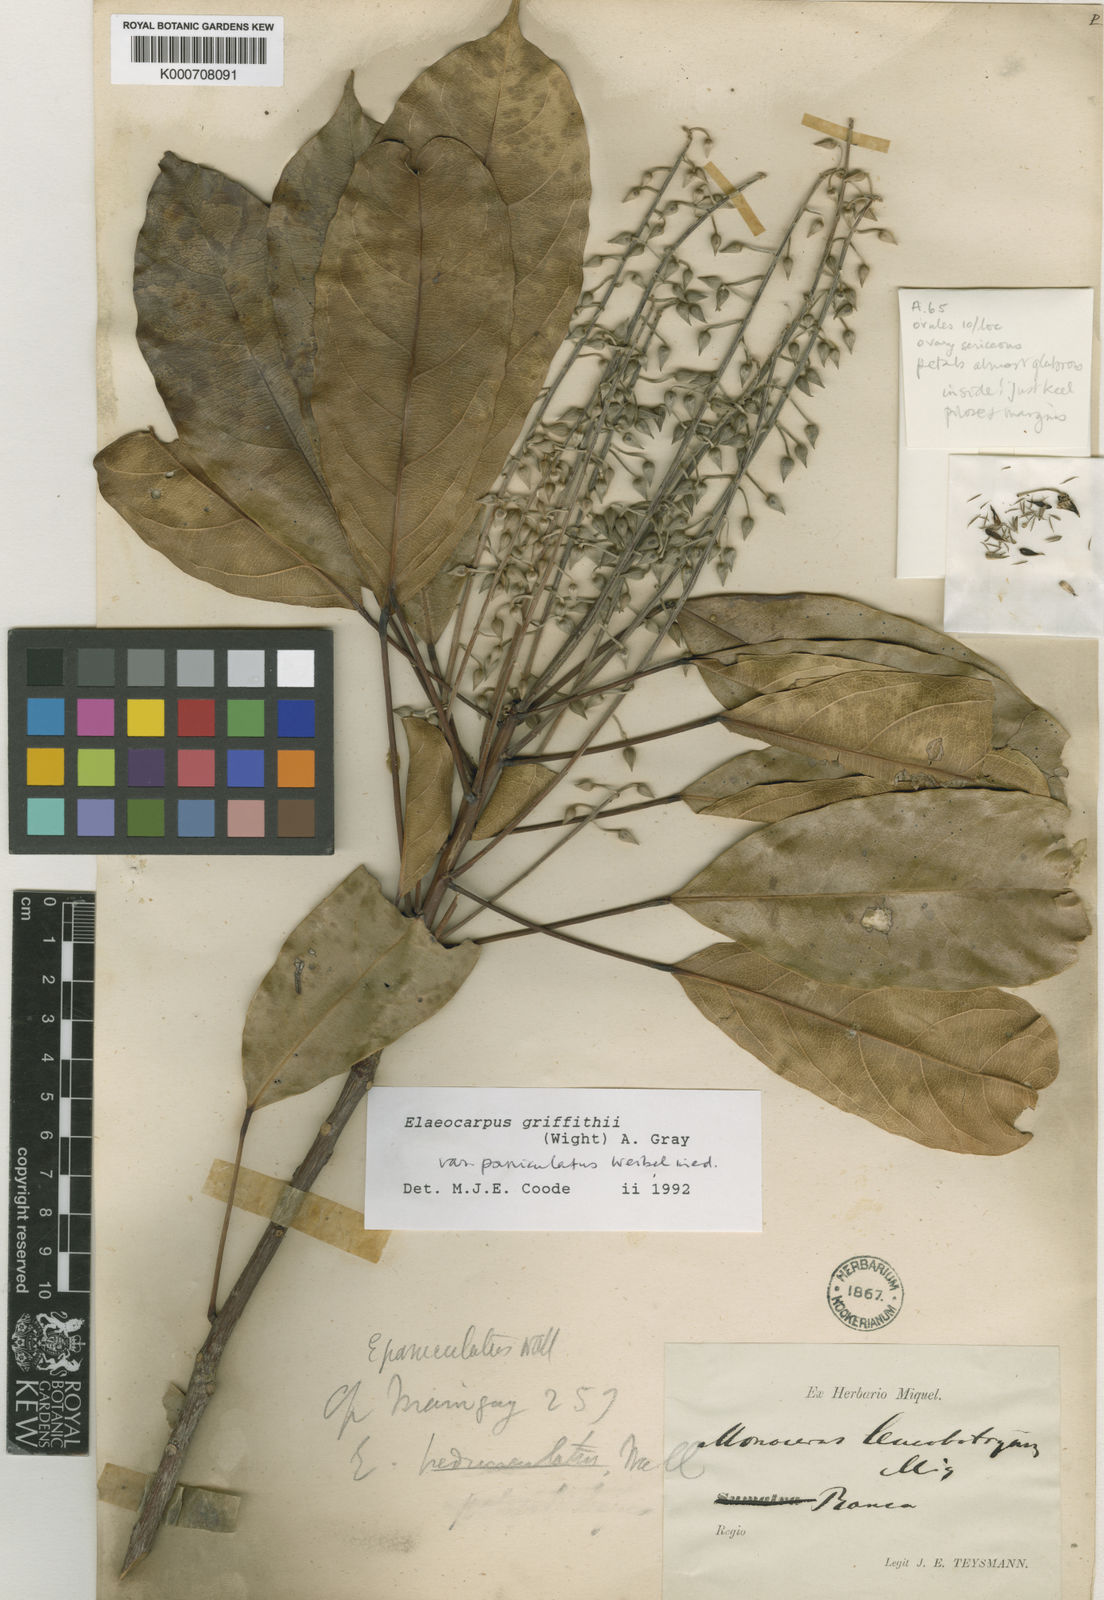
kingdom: Plantae
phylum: Tracheophyta
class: Magnoliopsida
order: Oxalidales
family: Elaeocarpaceae
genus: Elaeocarpus
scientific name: Elaeocarpus griffithii
